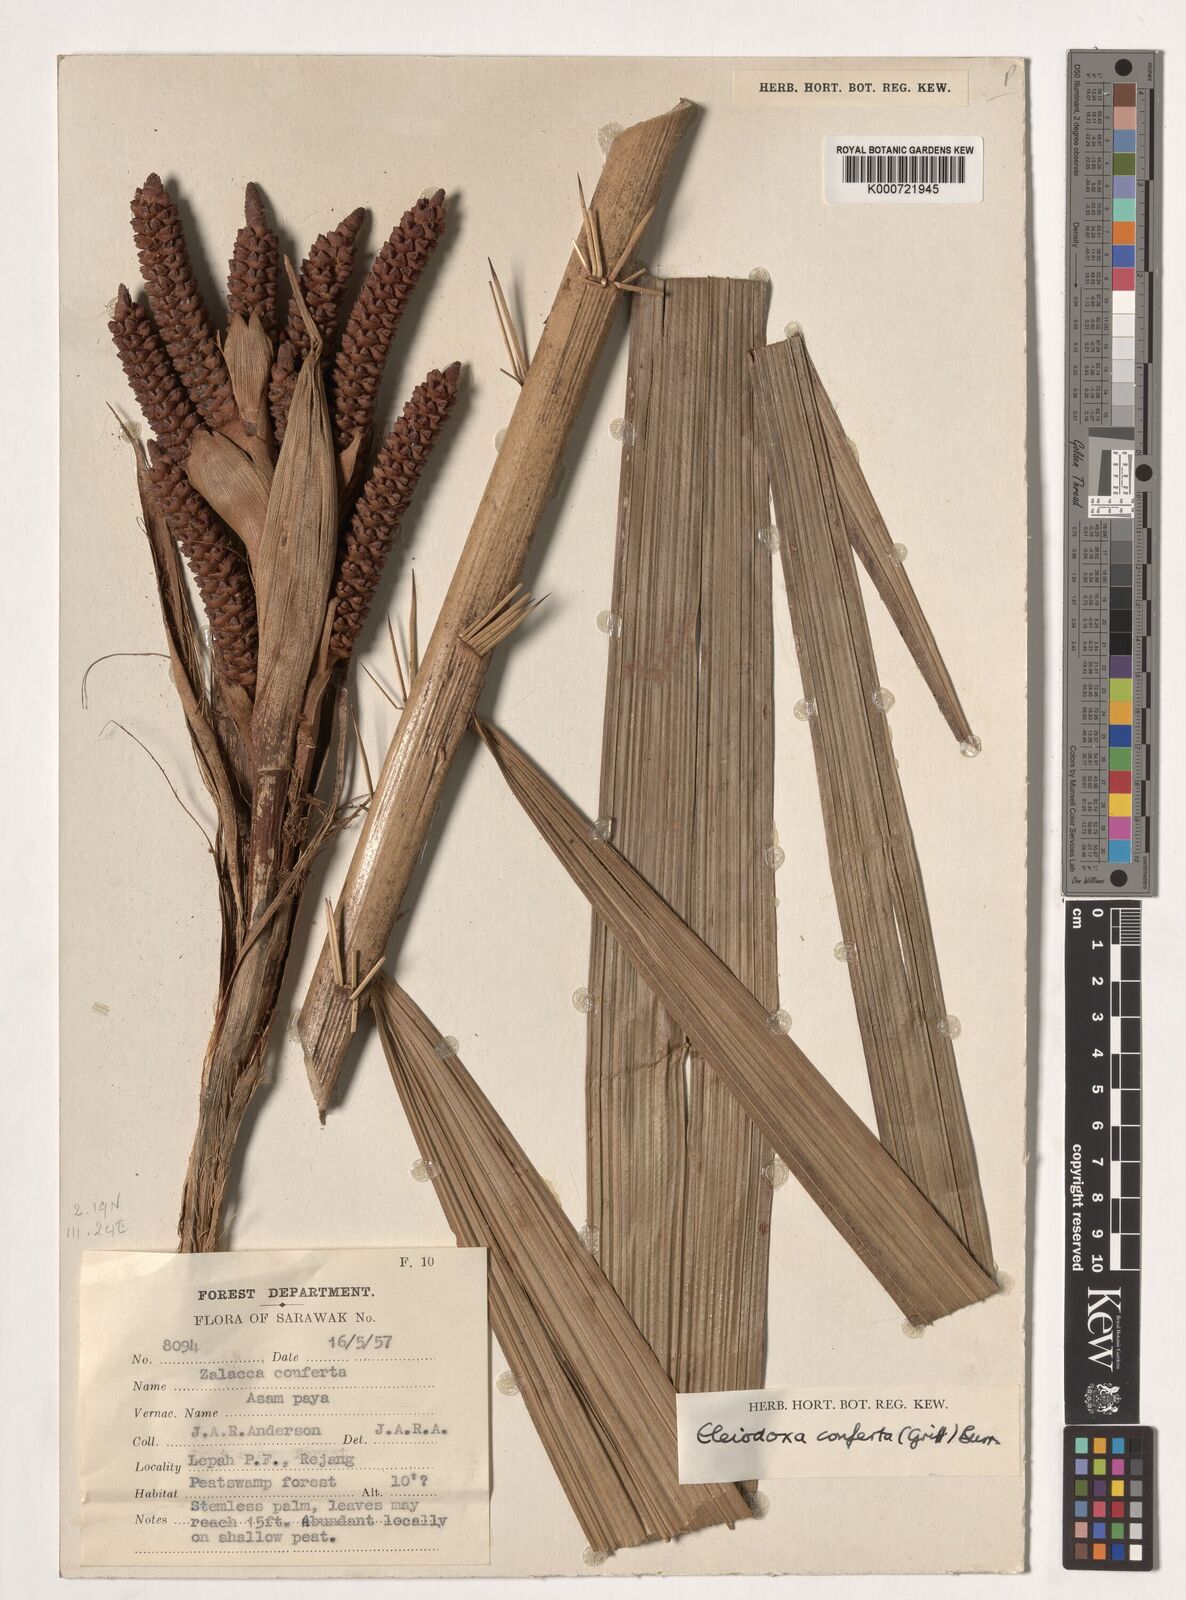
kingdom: Plantae
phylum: Tracheophyta
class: Liliopsida
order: Arecales
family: Arecaceae
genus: Eleiodoxa
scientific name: Eleiodoxa conferta
